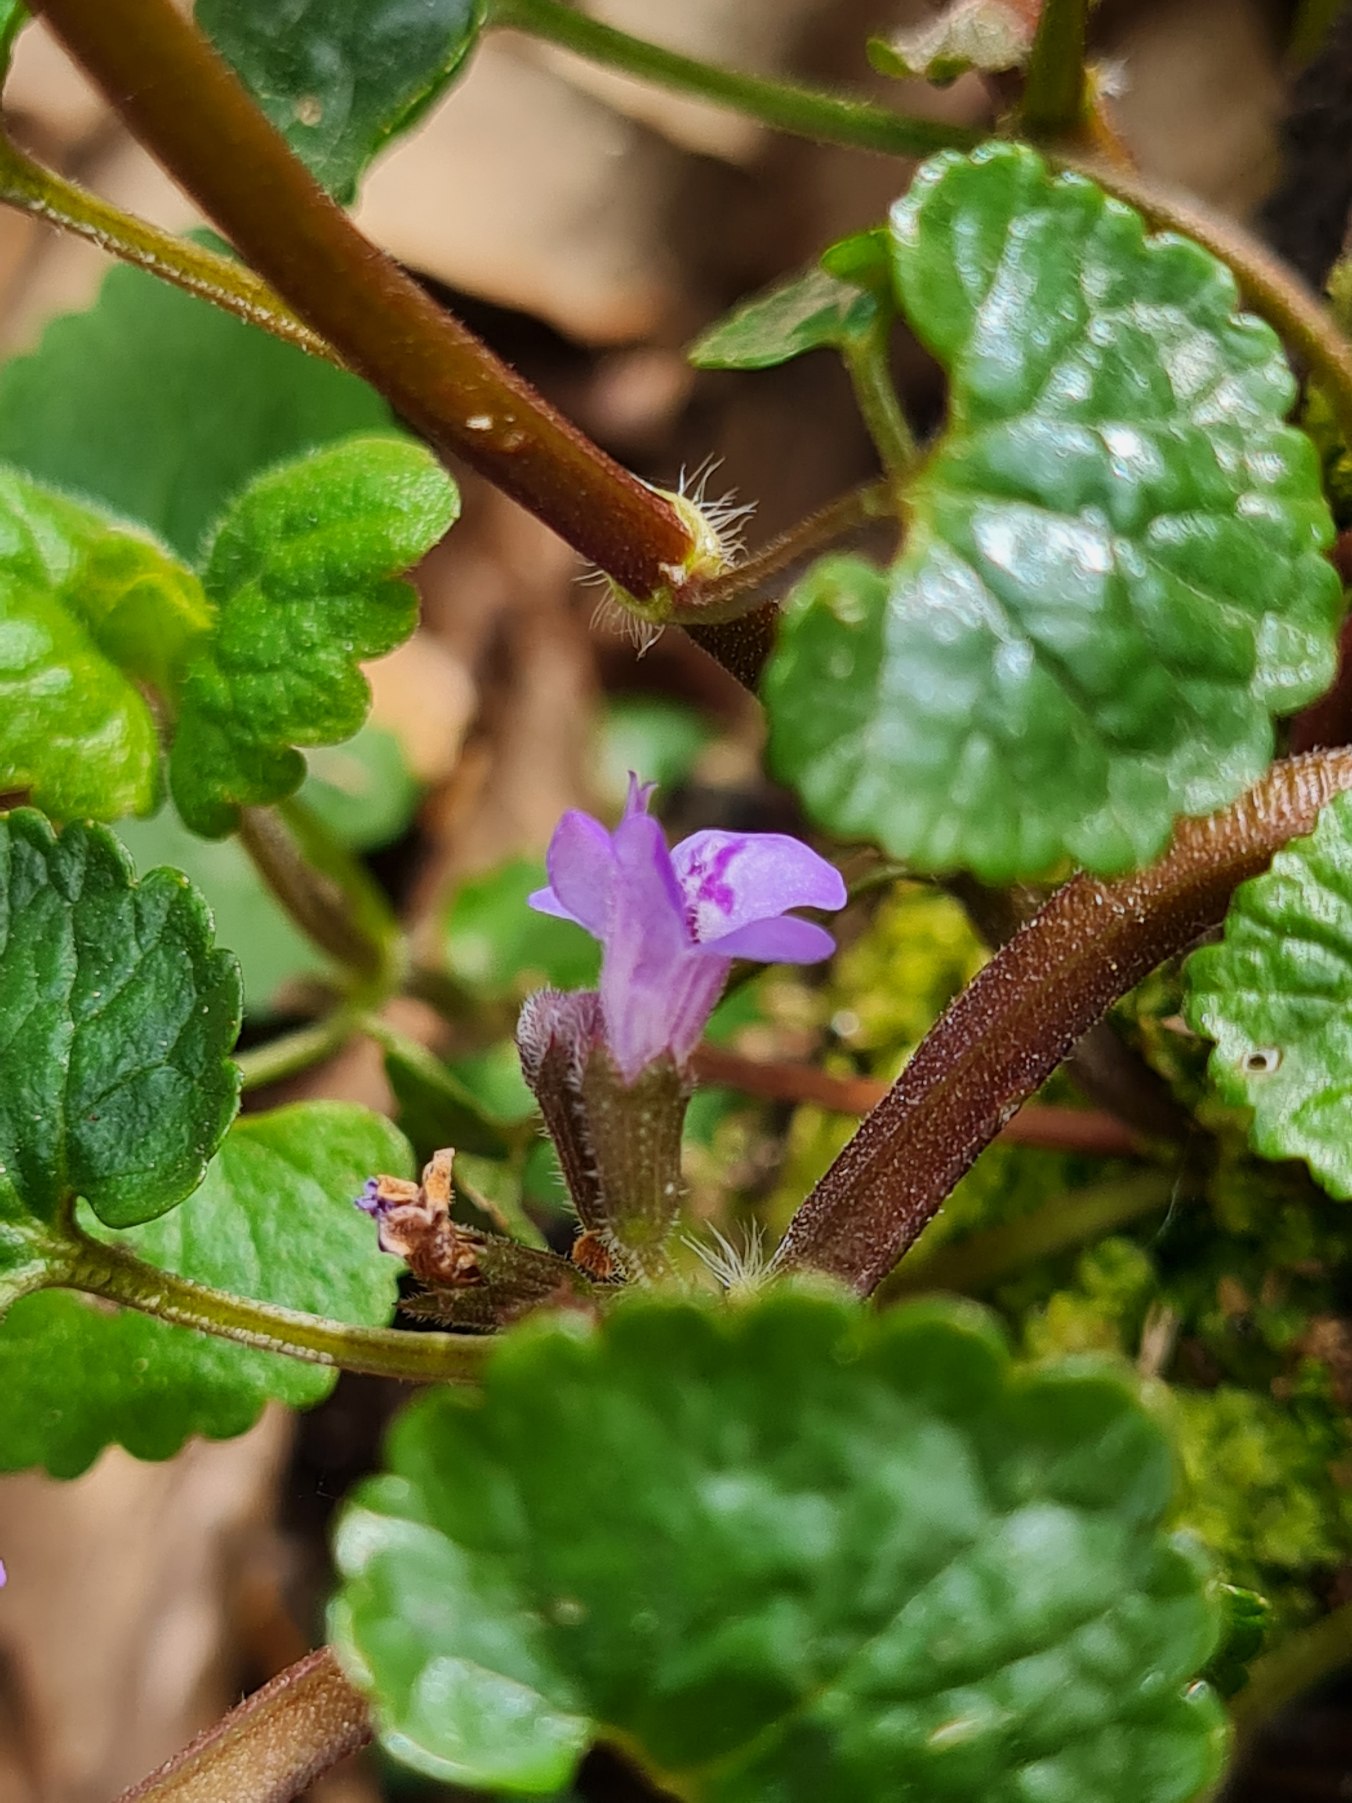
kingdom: Plantae
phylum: Tracheophyta
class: Magnoliopsida
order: Lamiales
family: Lamiaceae
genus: Glechoma
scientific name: Glechoma hederacea
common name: Korsknap
